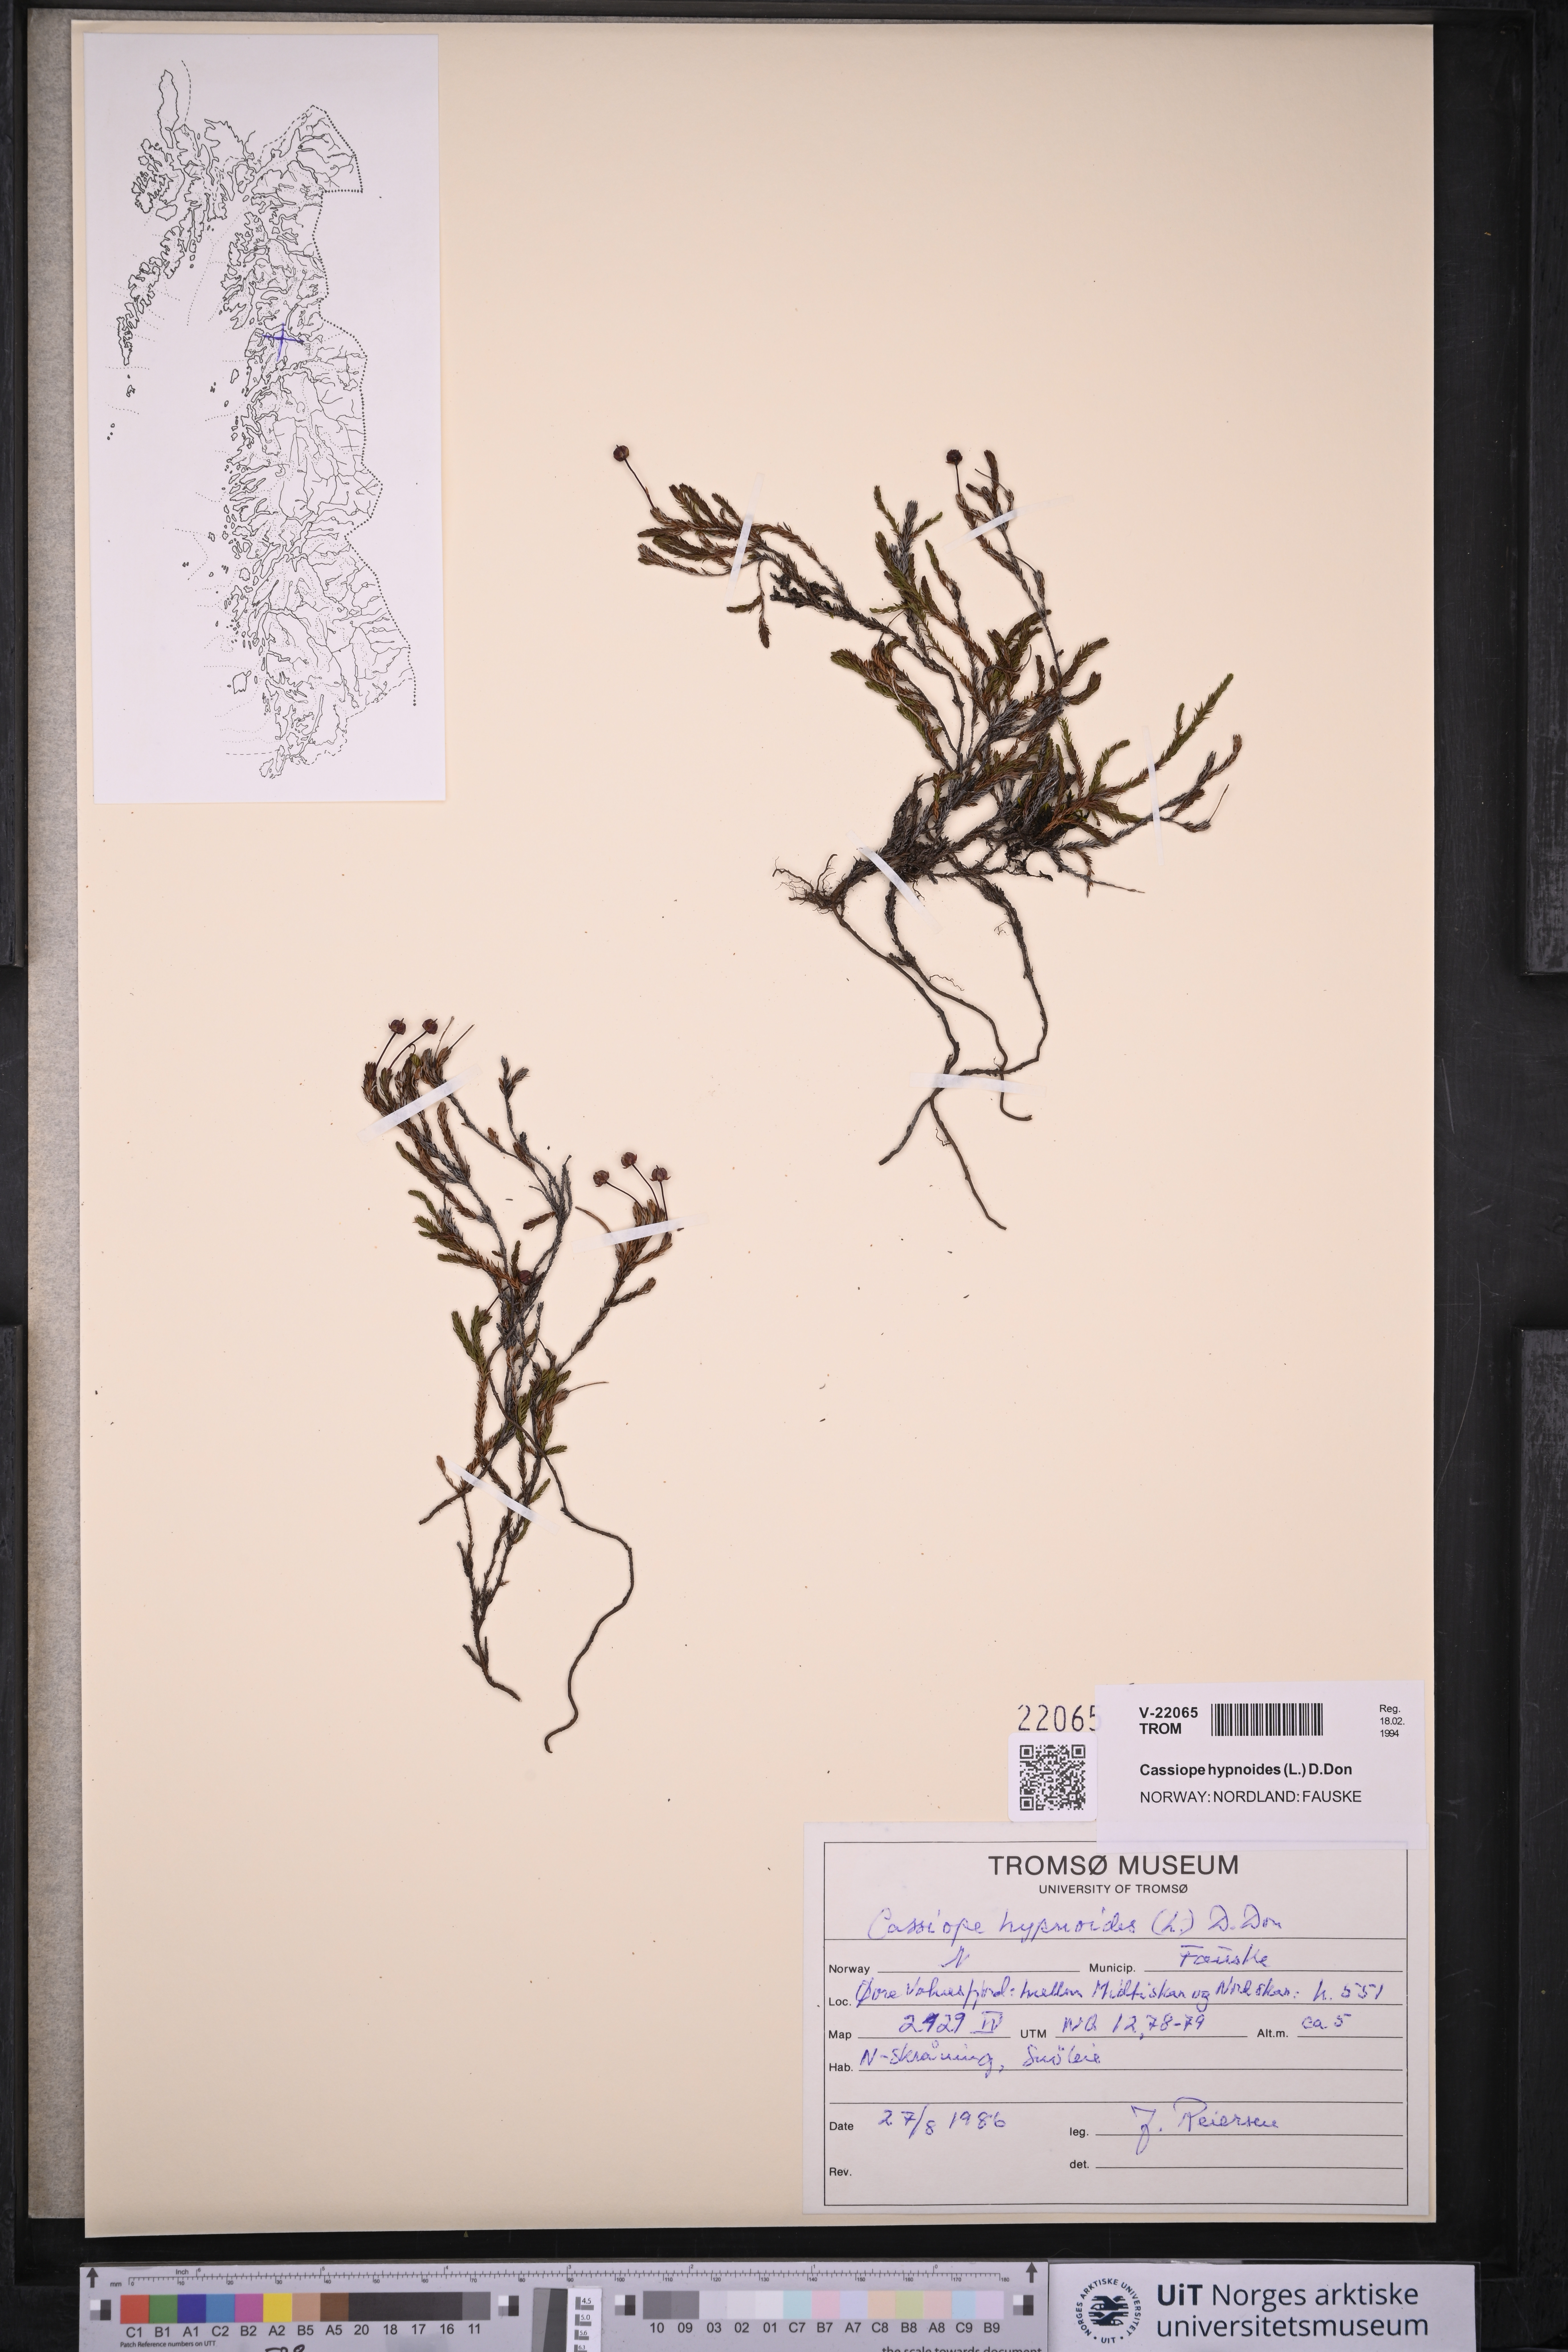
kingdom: Plantae
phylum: Tracheophyta
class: Magnoliopsida
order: Ericales
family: Ericaceae
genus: Harrimanella
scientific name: Harrimanella hypnoides
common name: Moss bell heather
